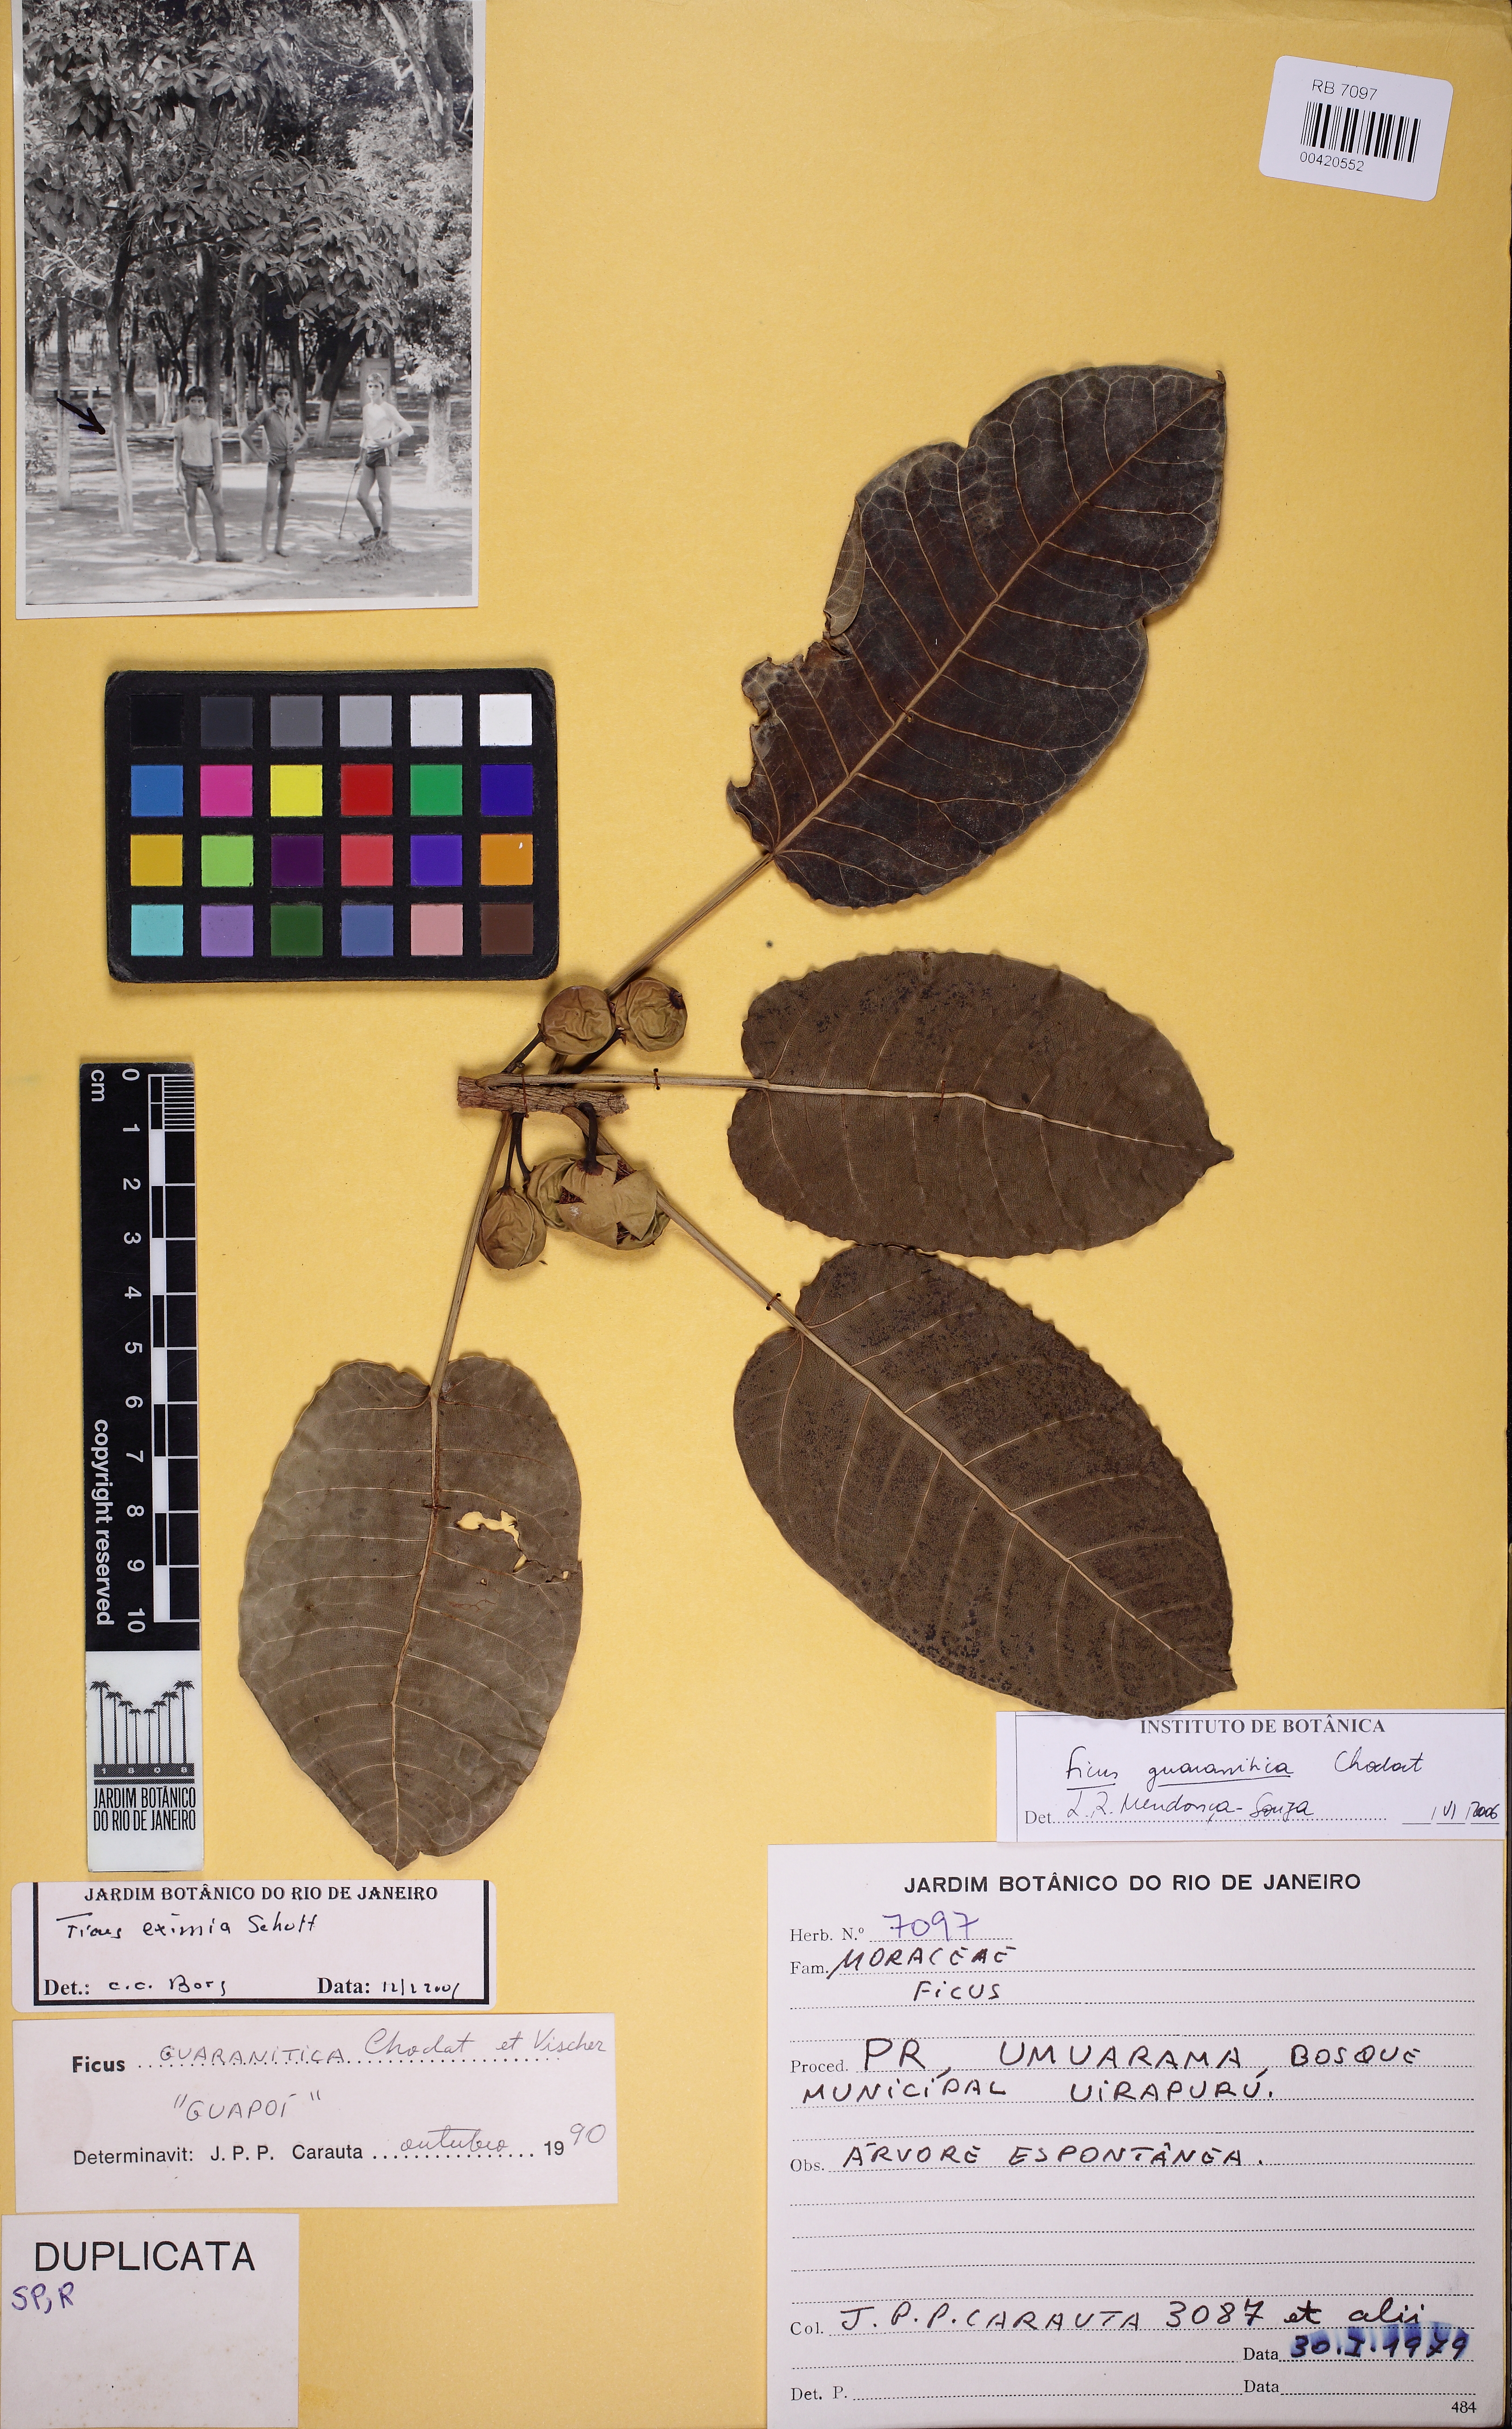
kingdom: Plantae
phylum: Tracheophyta
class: Magnoliopsida
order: Rosales
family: Moraceae
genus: Ficus
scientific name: Ficus guaranitica
